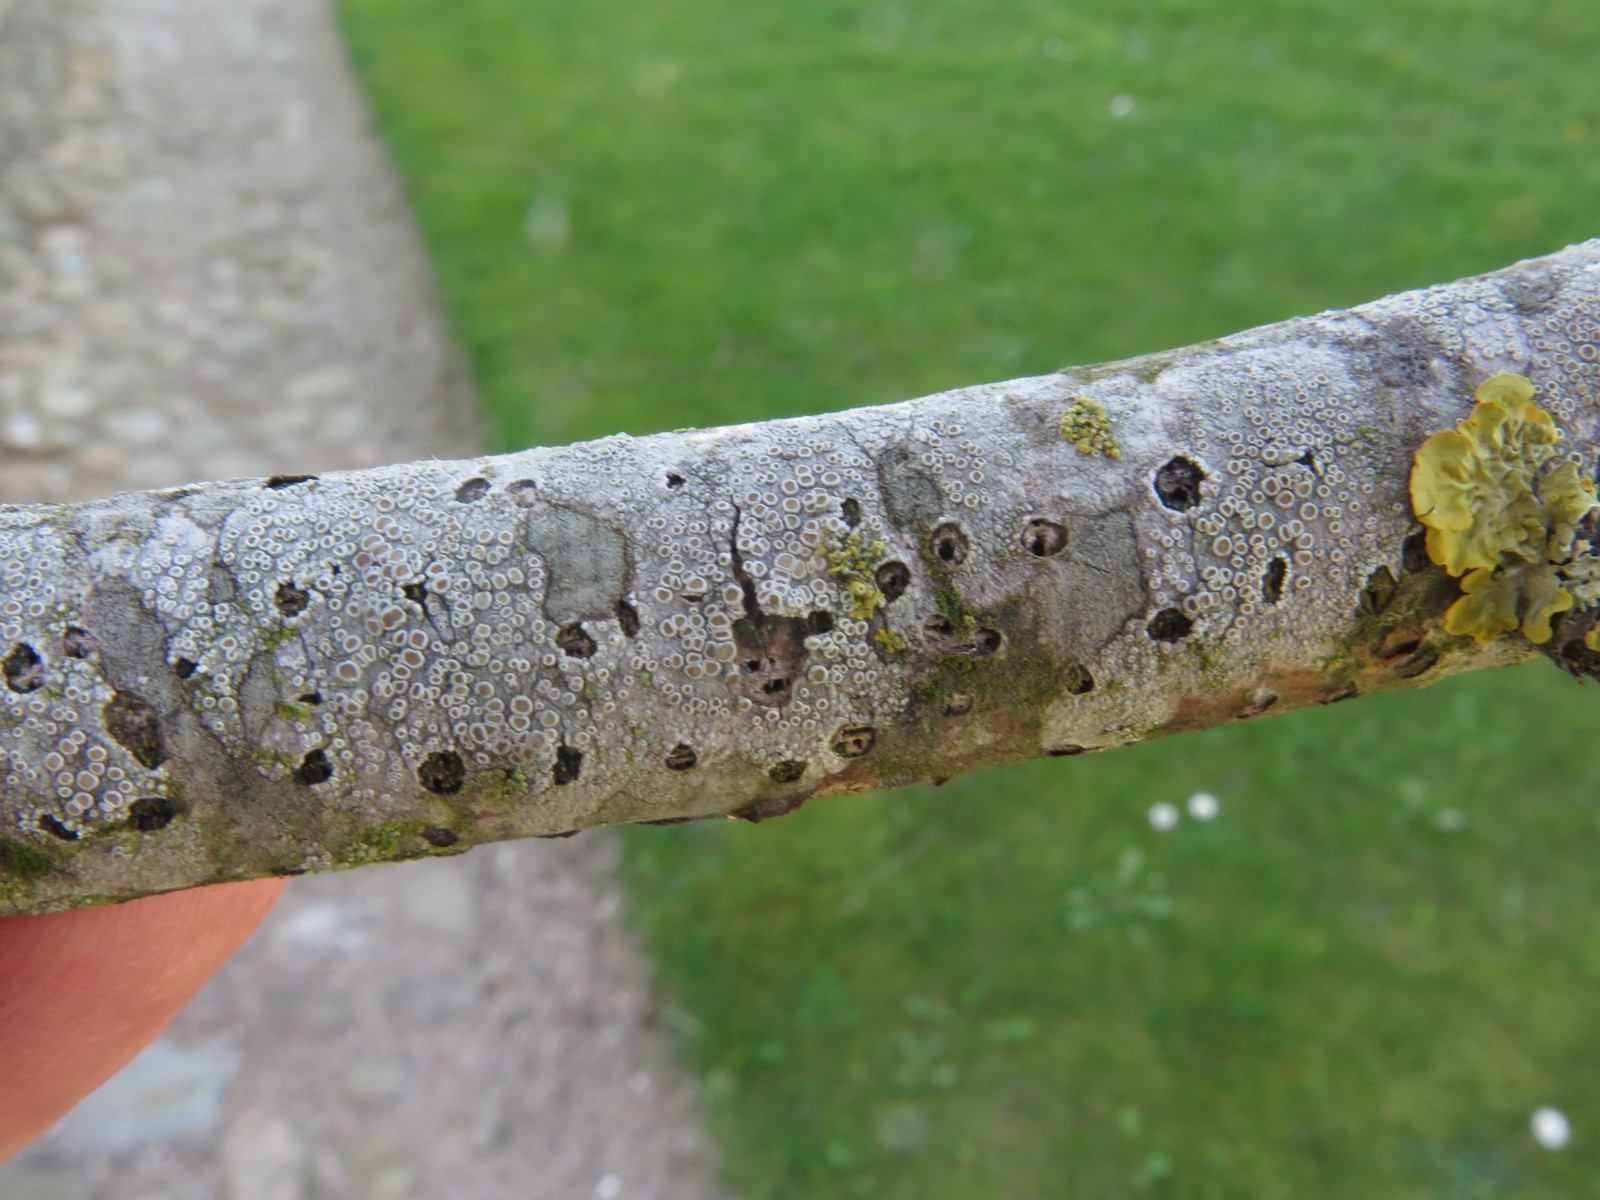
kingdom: Fungi
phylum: Ascomycota
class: Lecanoromycetes
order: Lecanorales
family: Lecanoraceae
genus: Lecanora
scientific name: Lecanora chlarotera
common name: brun kantskivelav
